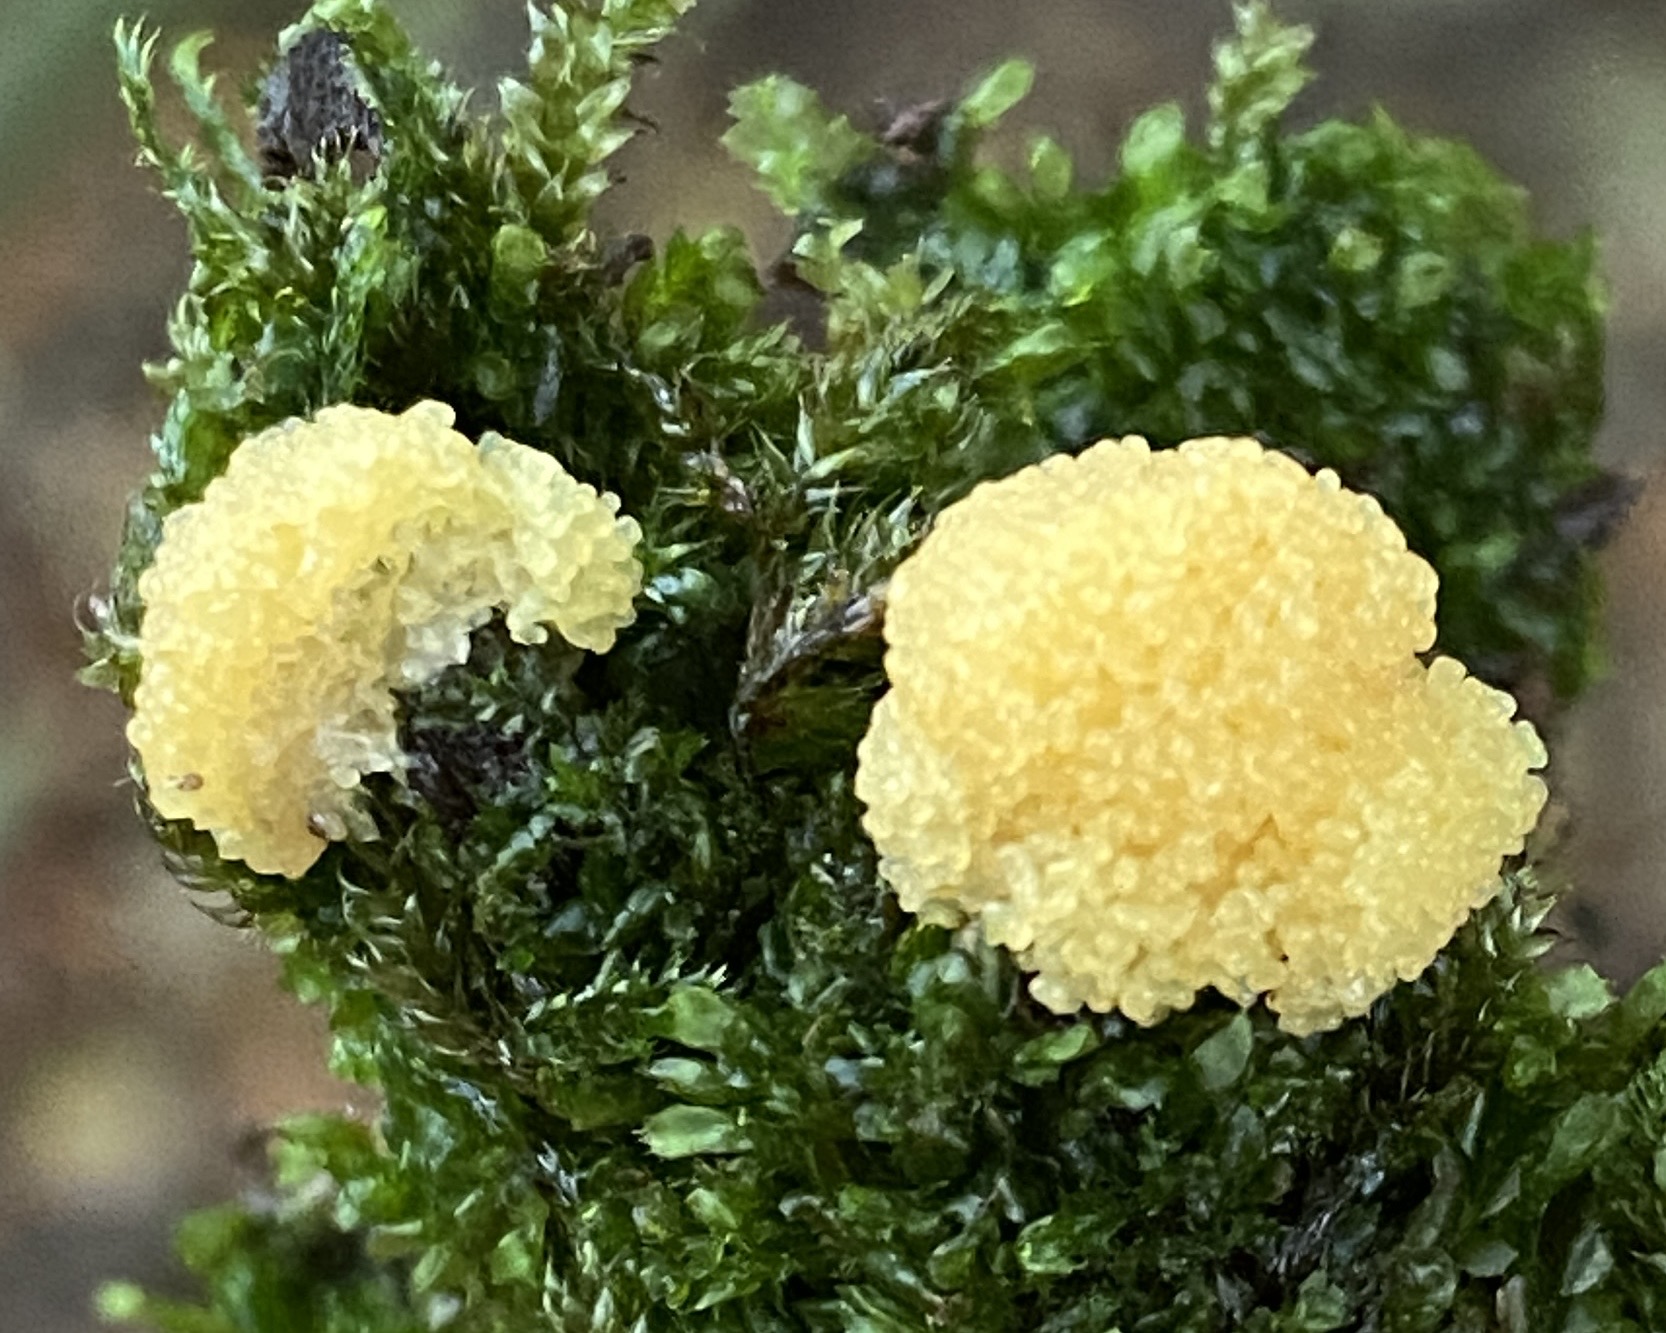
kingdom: Protozoa
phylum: Mycetozoa
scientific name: Mycetozoa
